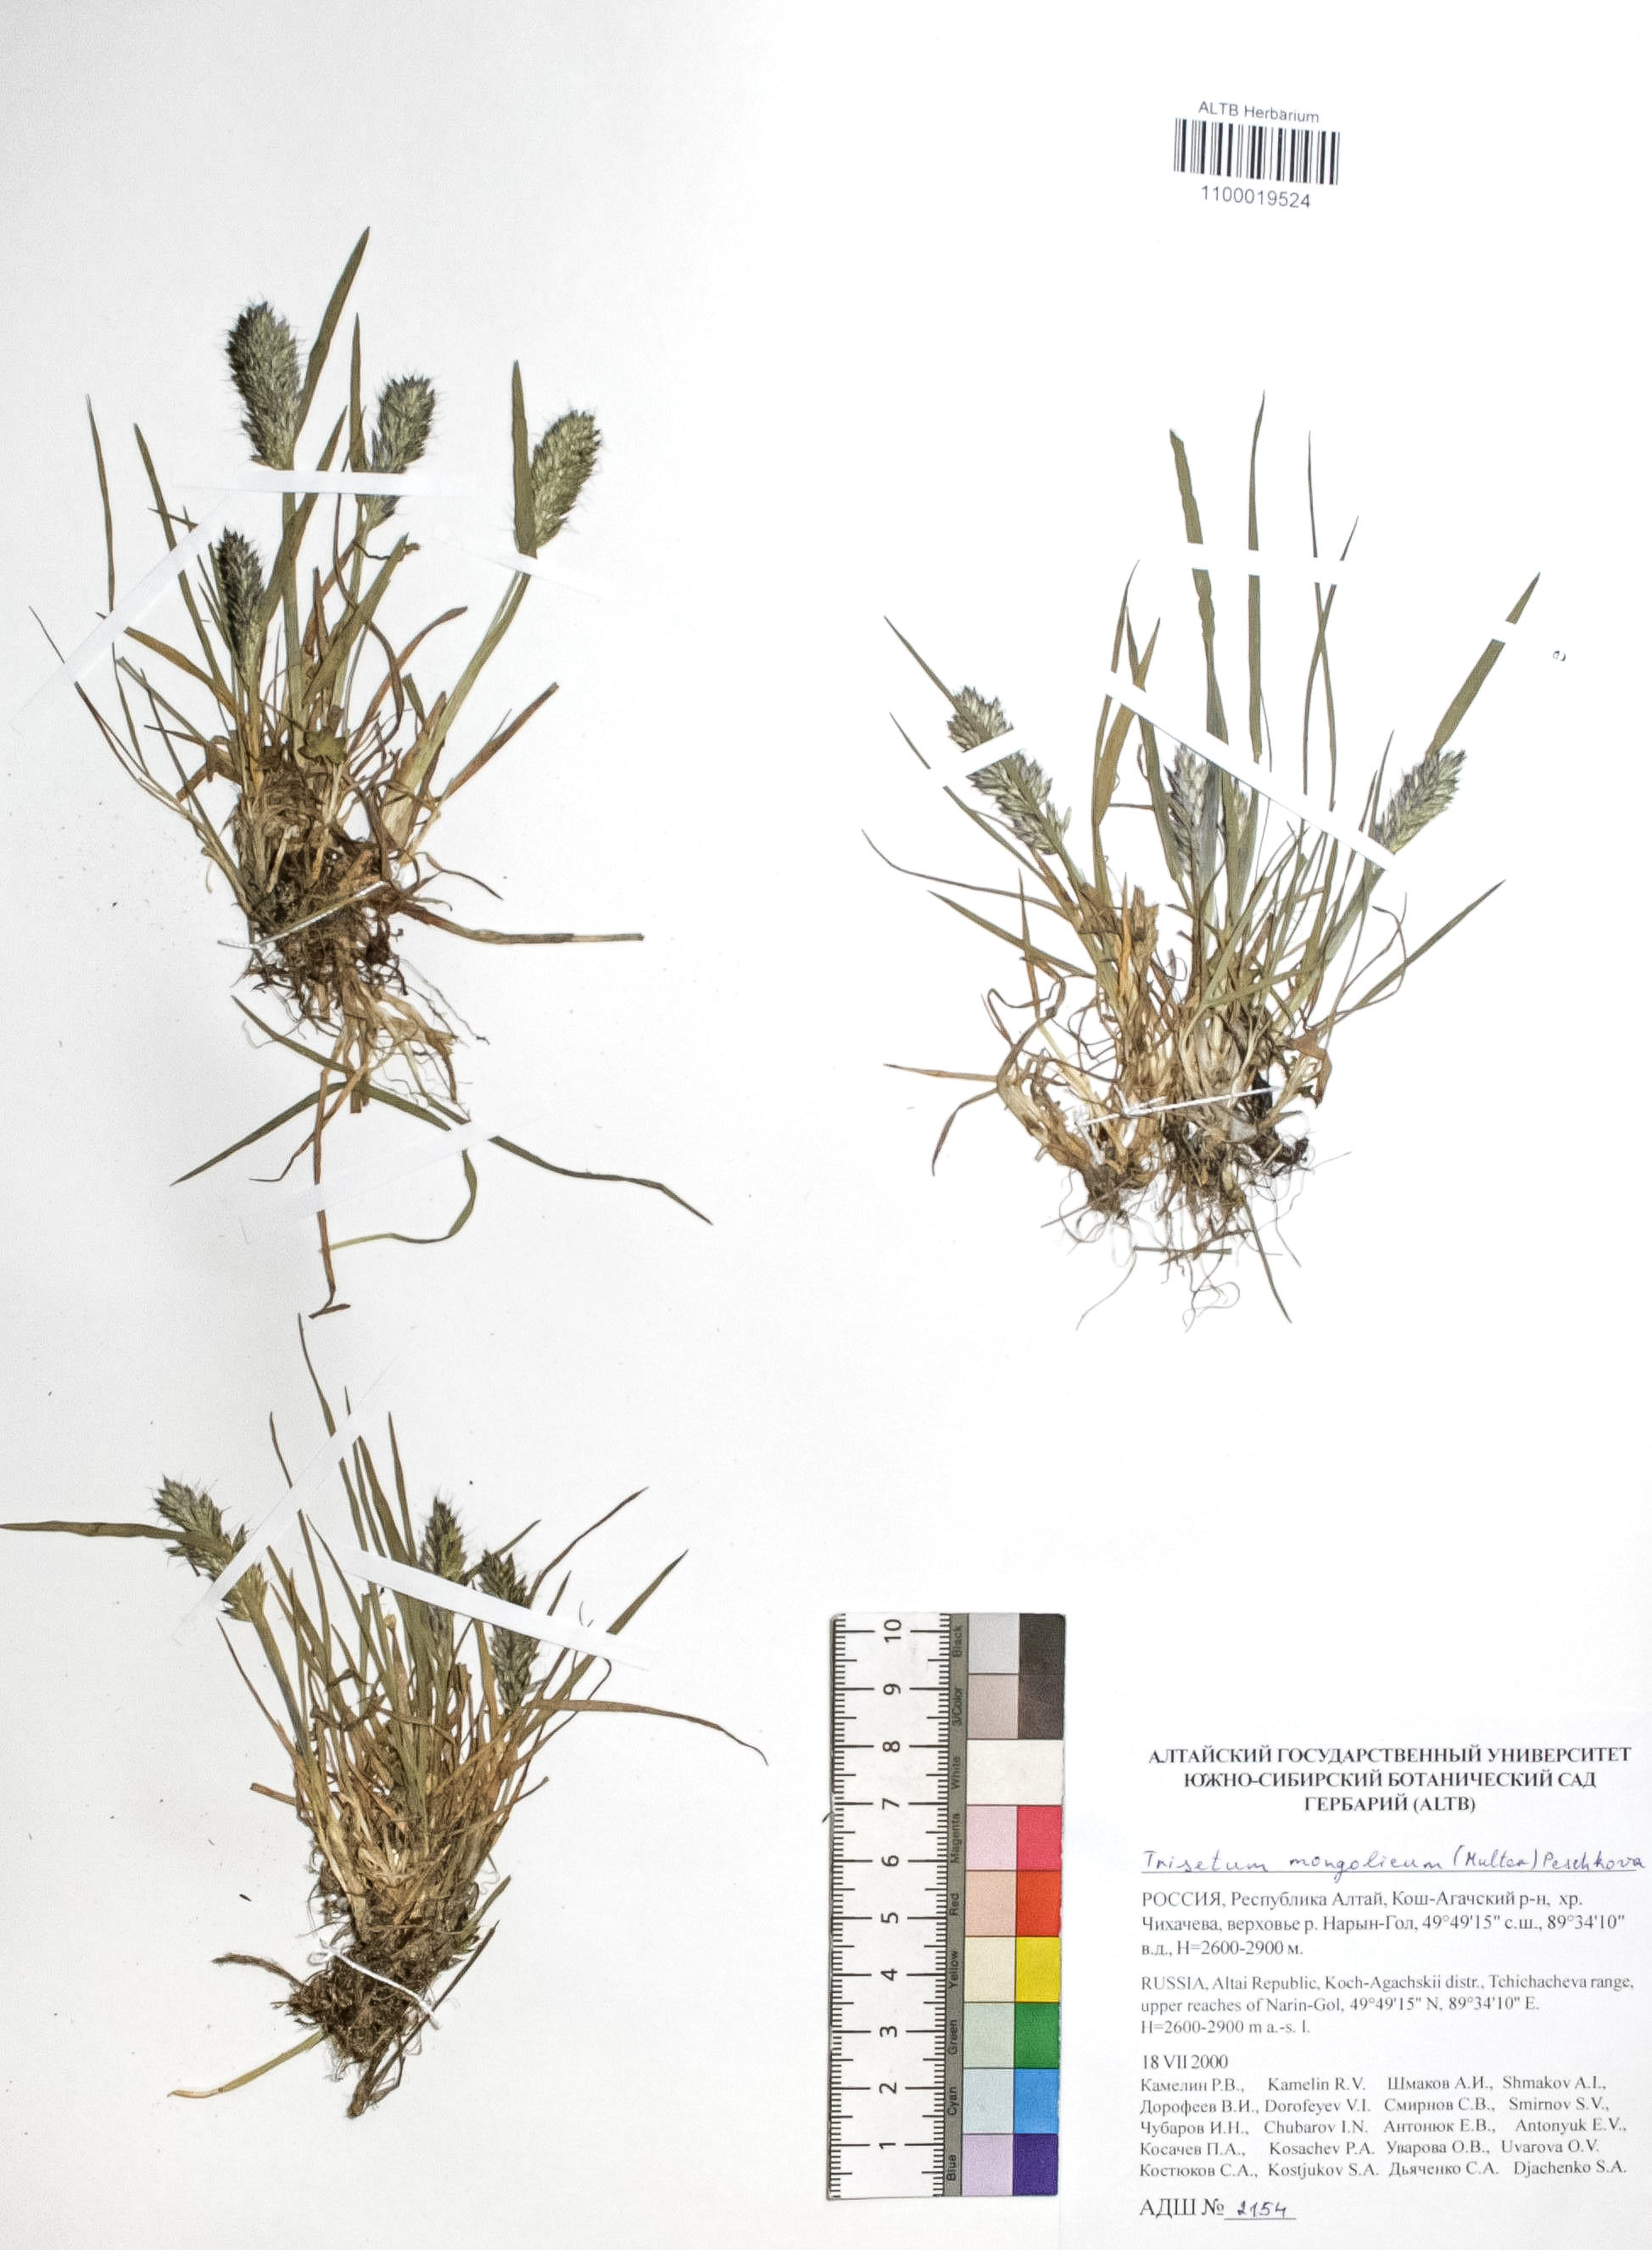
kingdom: Plantae
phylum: Tracheophyta
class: Liliopsida
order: Poales
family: Poaceae
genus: Koeleria
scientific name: Koeleria spicata
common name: Mountain trisetum
